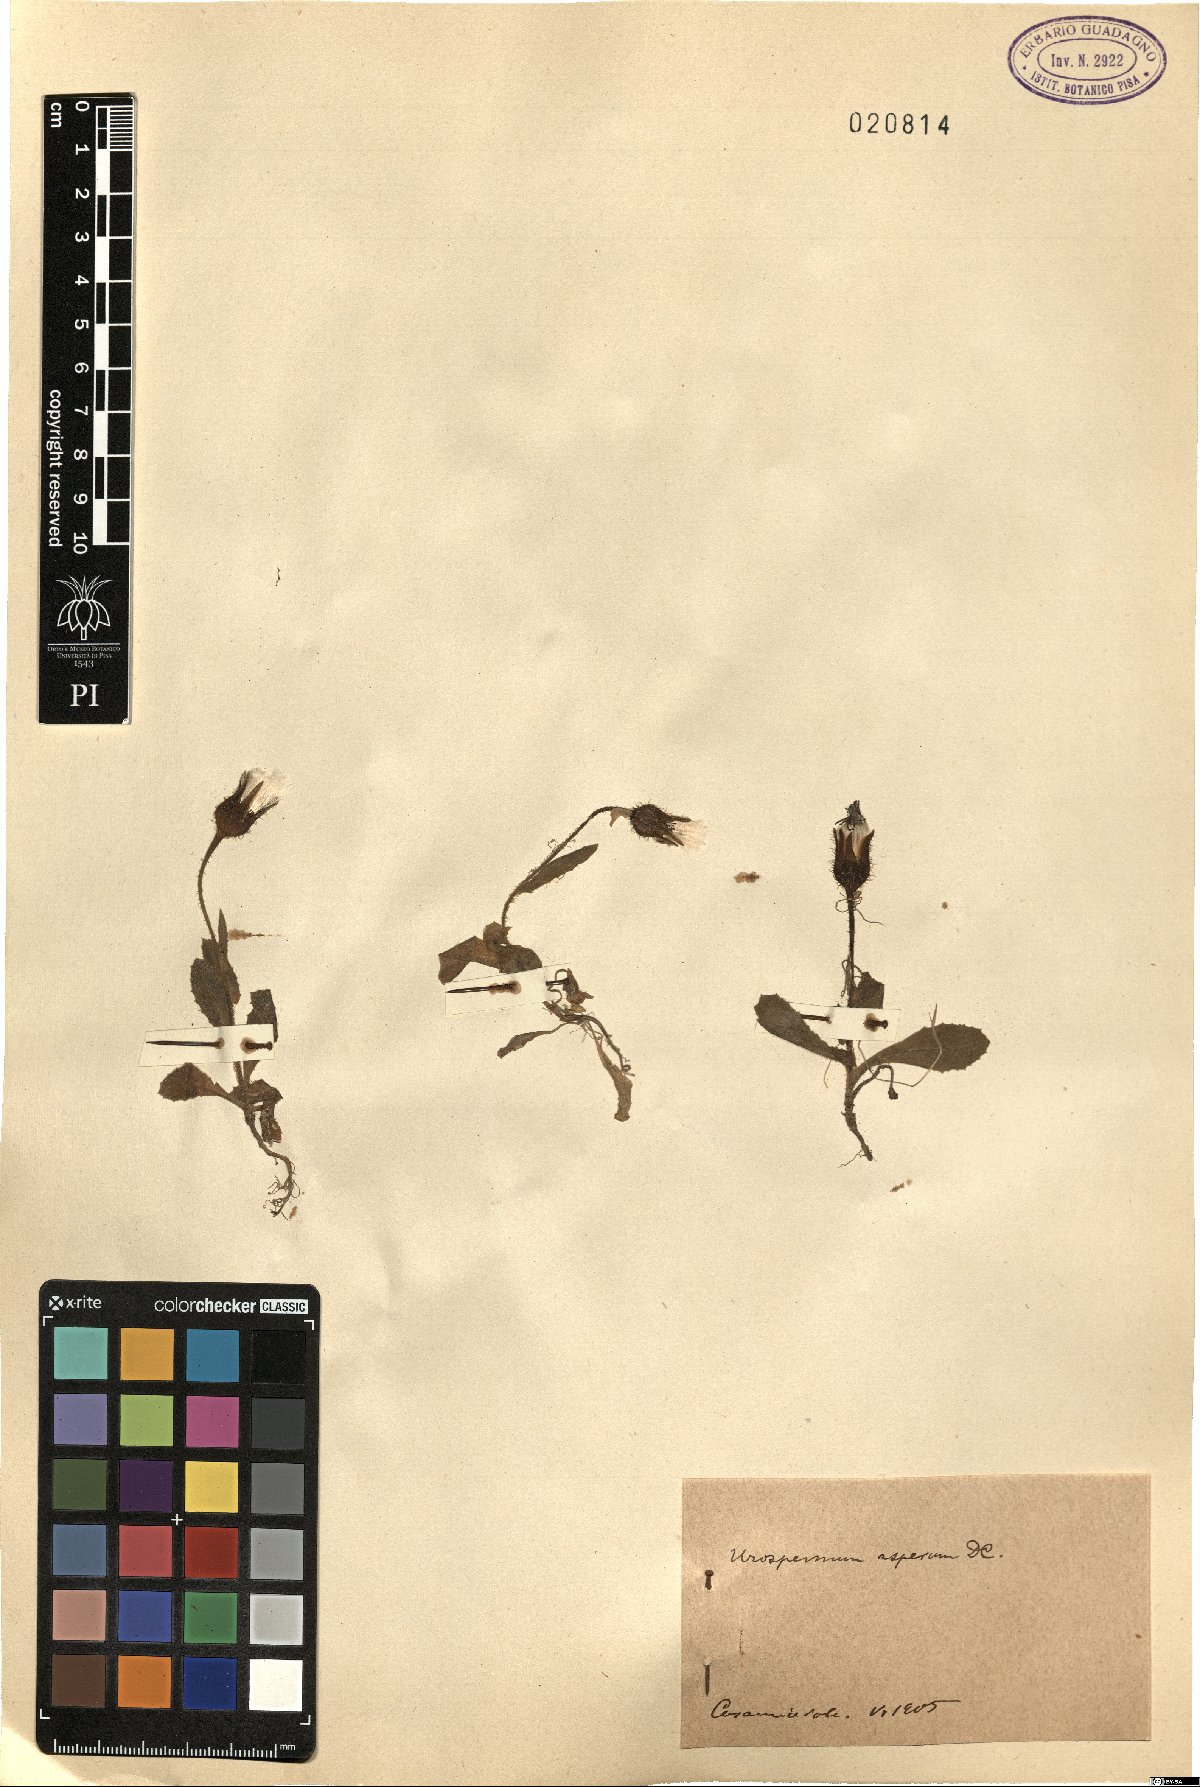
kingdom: Plantae
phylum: Tracheophyta
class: Magnoliopsida
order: Asterales
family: Asteraceae
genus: Urospermum
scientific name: Urospermum picroides
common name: False hawkbit
